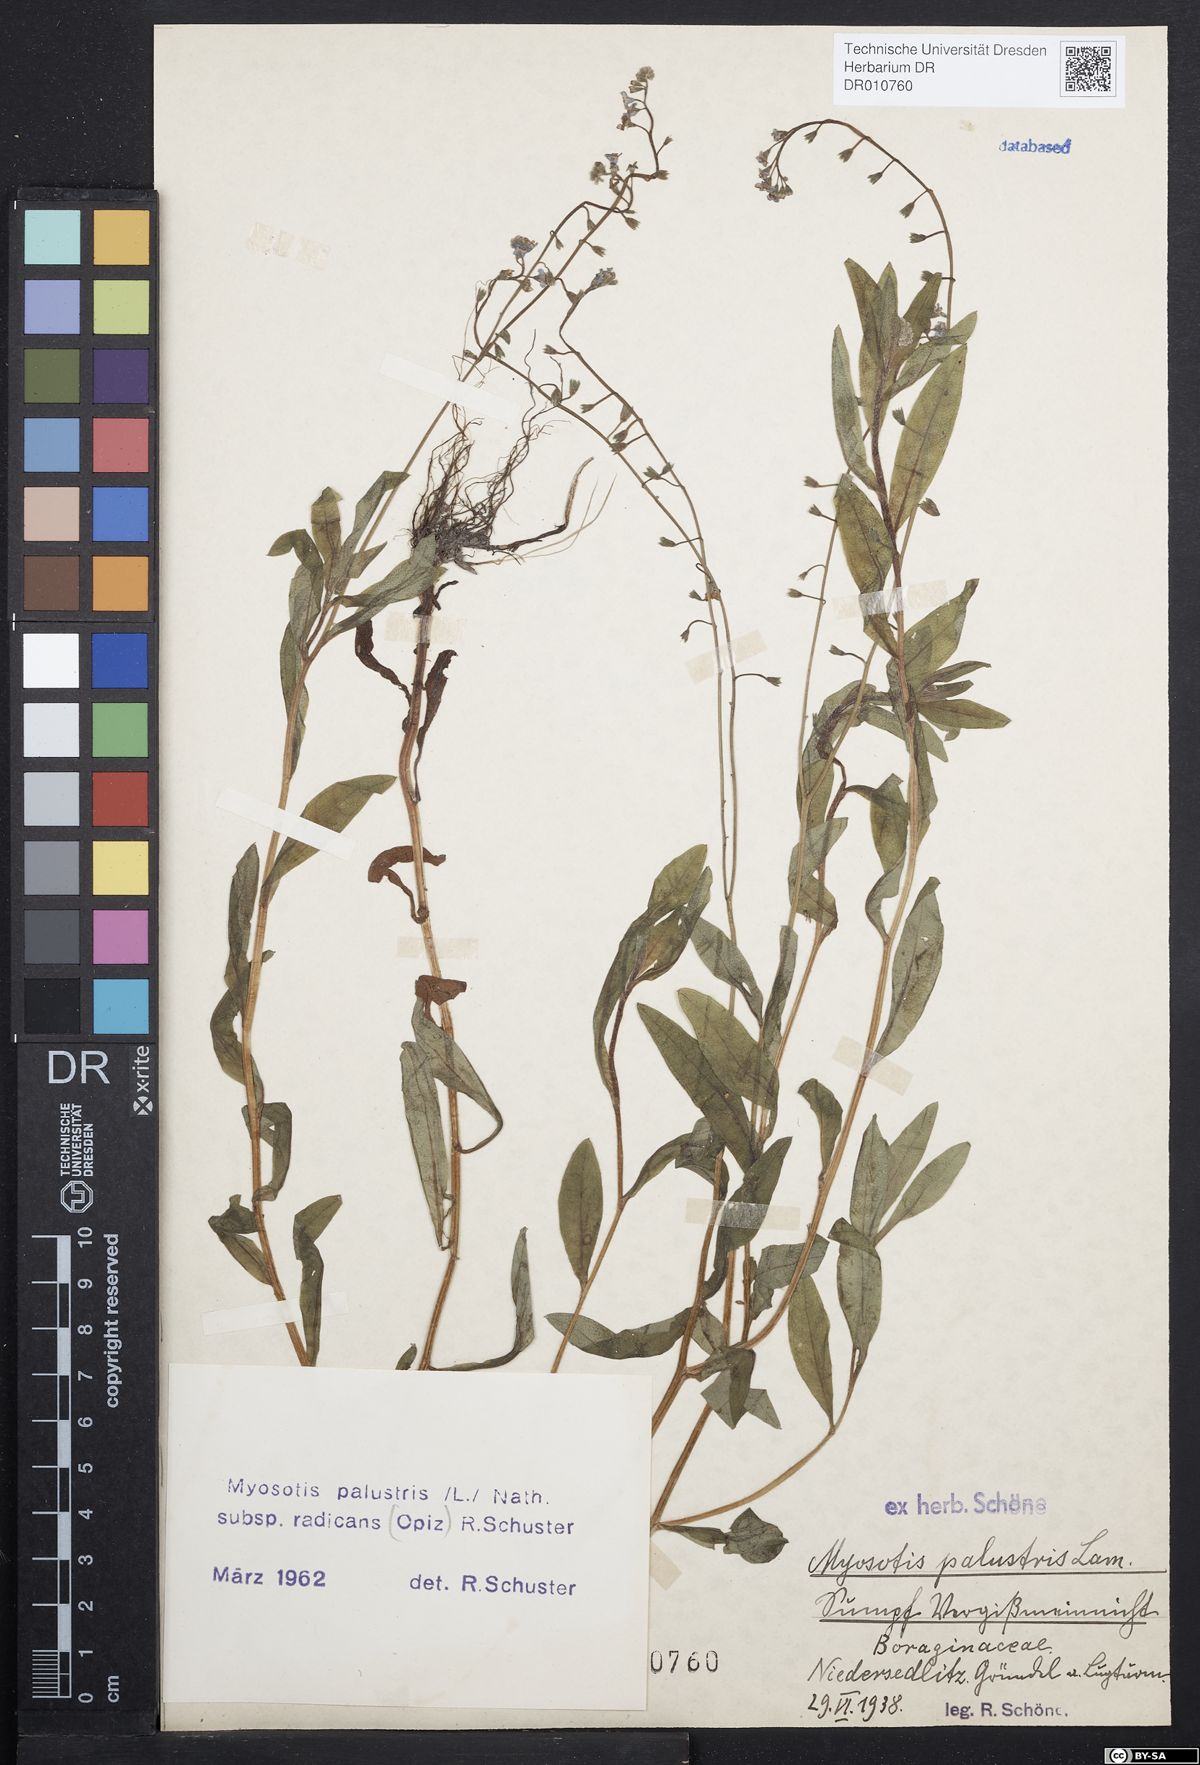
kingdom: Plantae
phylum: Tracheophyta
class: Magnoliopsida
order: Boraginales
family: Boraginaceae
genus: Myosotis
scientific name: Myosotis scorpioides
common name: Water forget-me-not
